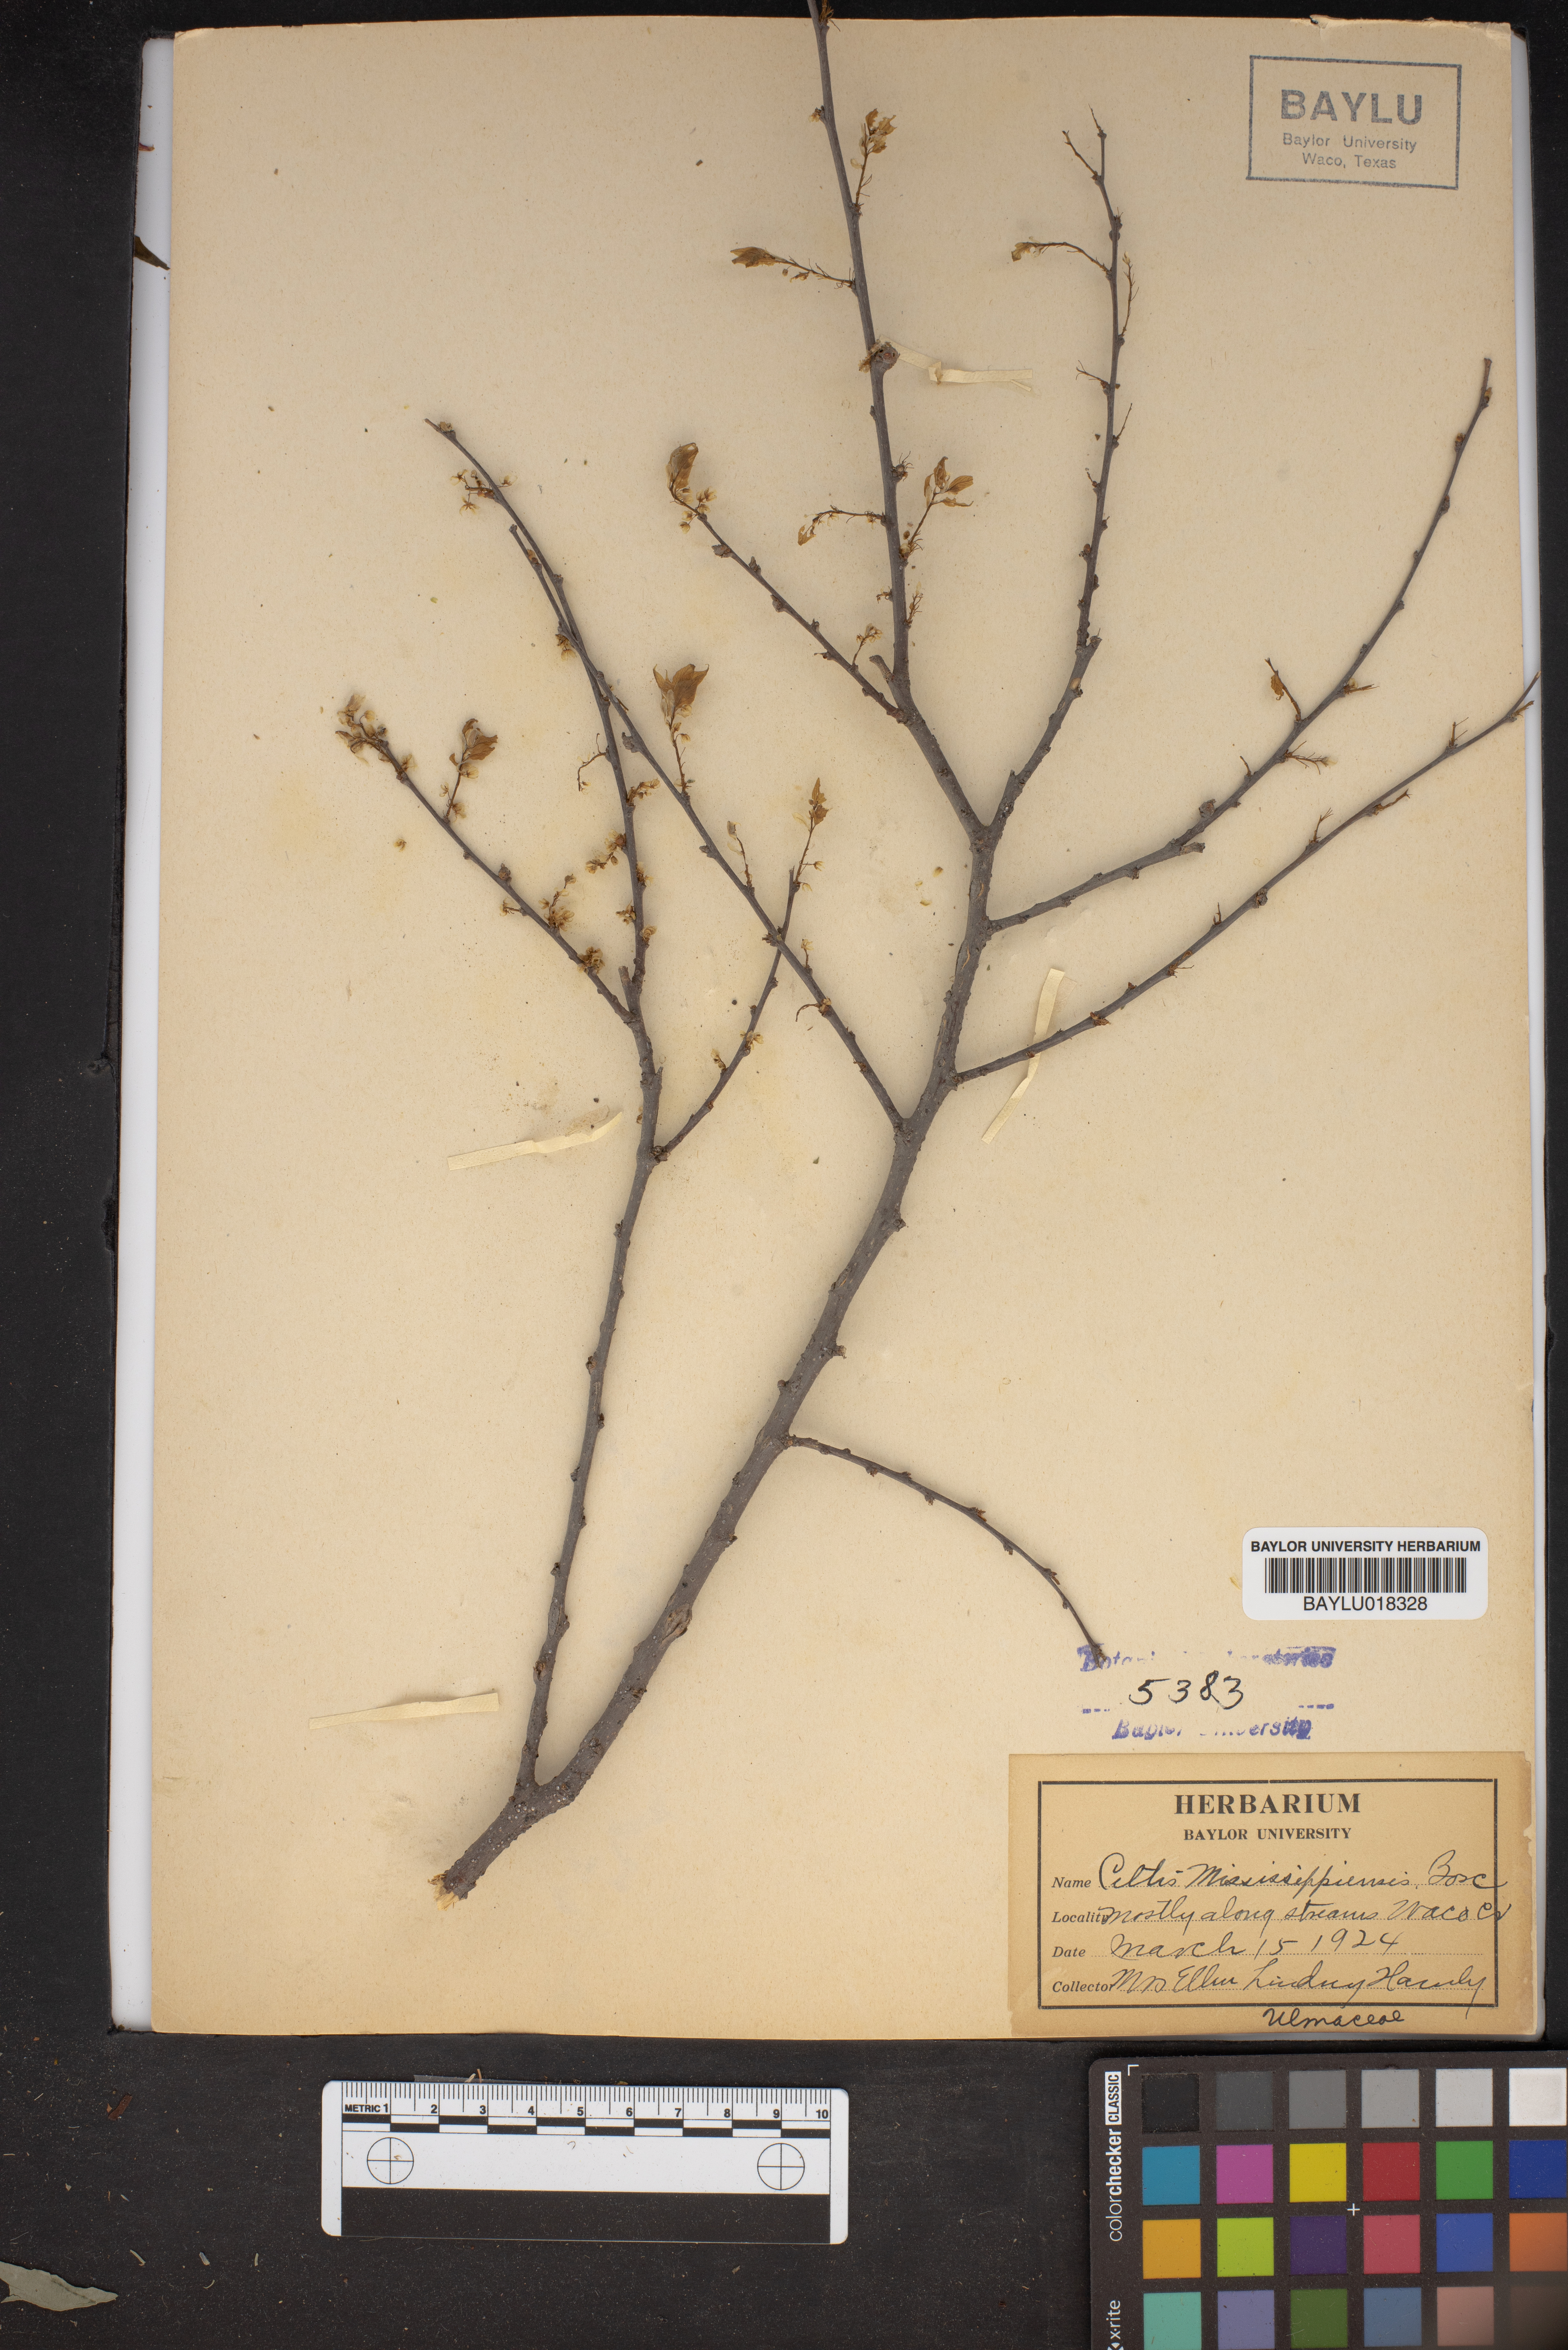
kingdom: Plantae
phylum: Tracheophyta
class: Magnoliopsida
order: Rosales
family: Cannabaceae
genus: Celtis
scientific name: Celtis
